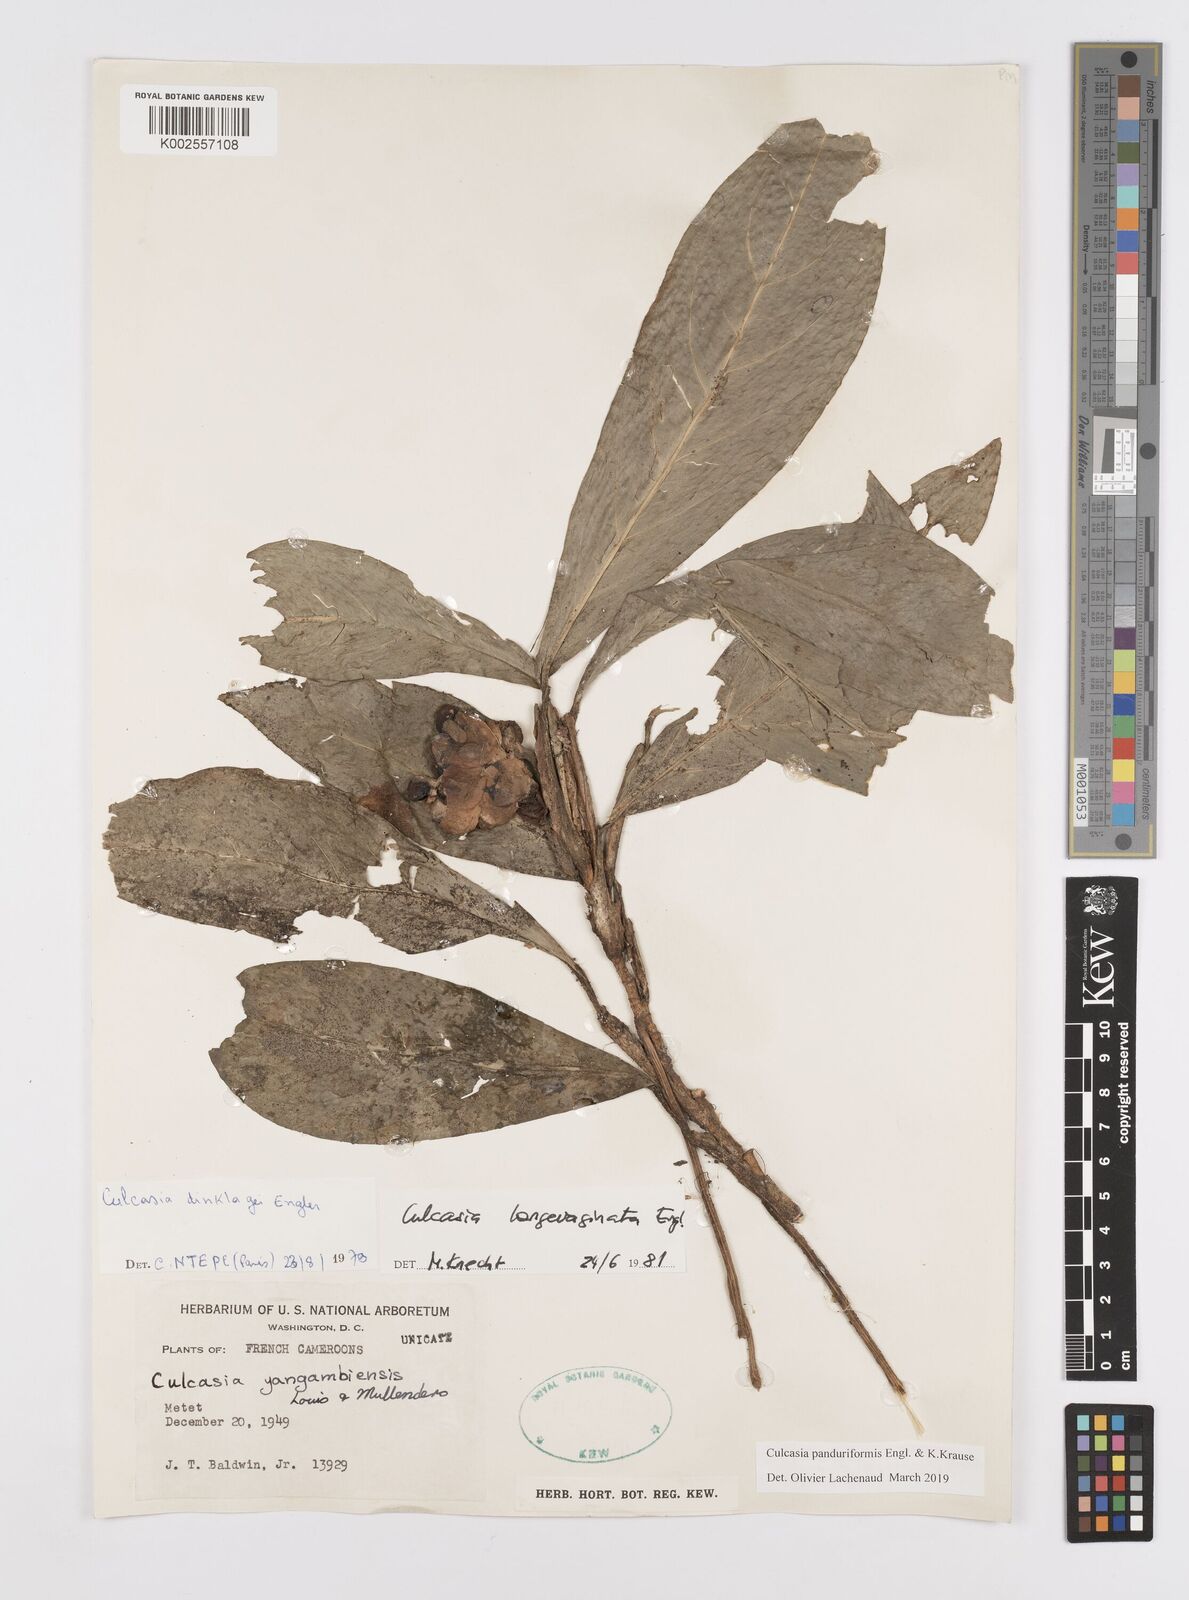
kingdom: Plantae
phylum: Tracheophyta
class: Liliopsida
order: Alismatales
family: Araceae
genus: Culcasia
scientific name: Culcasia panduriformis
